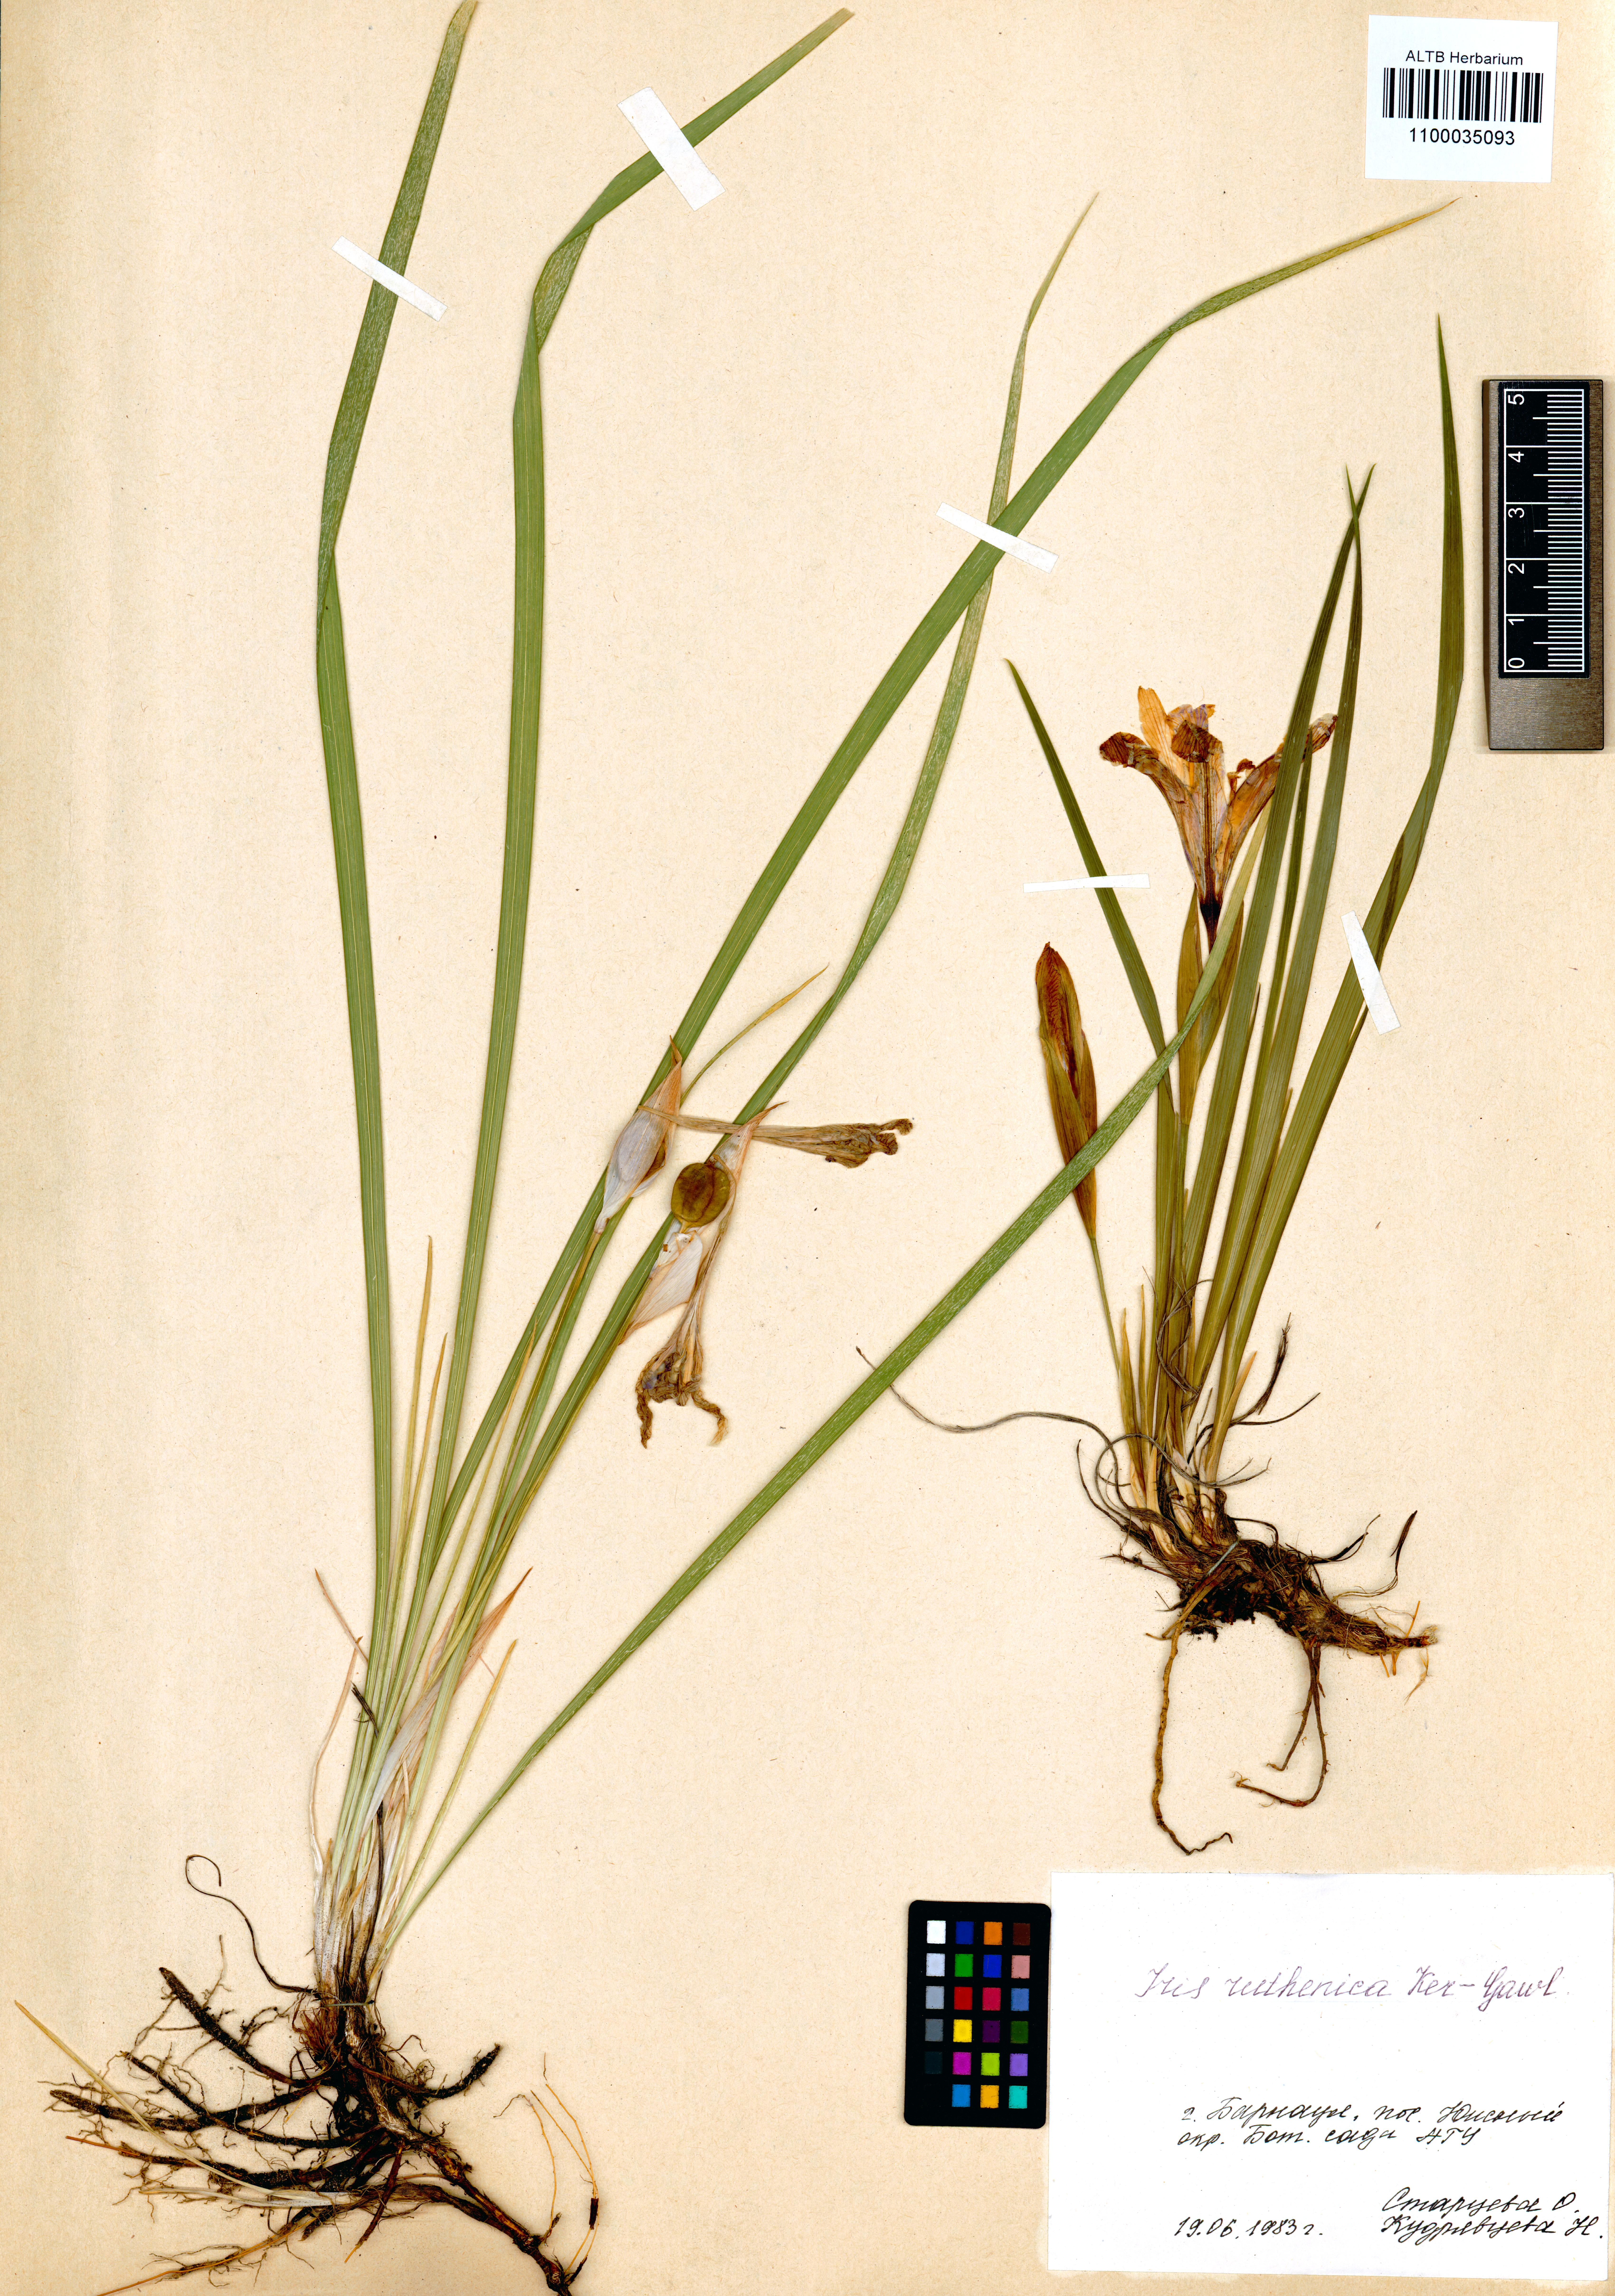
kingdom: Plantae
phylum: Tracheophyta
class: Liliopsida
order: Asparagales
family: Iridaceae
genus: Iris
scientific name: Iris ruthenica
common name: Purple-bract iris
